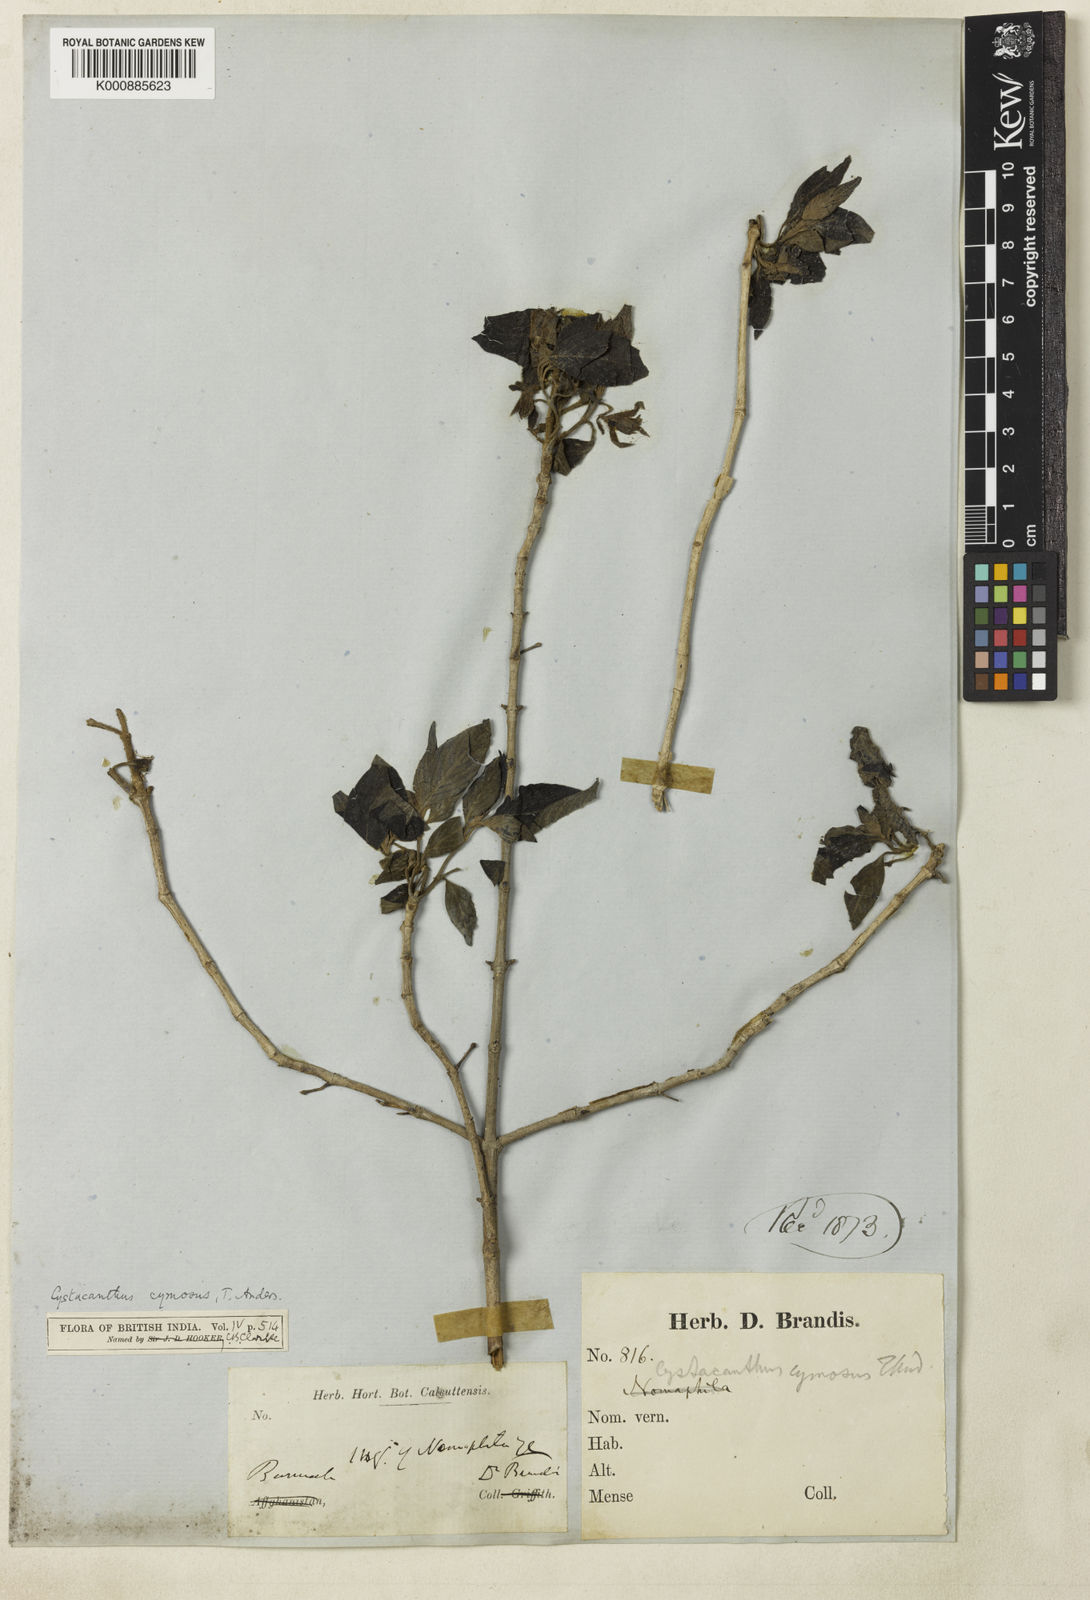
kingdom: Plantae
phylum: Tracheophyta
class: Magnoliopsida
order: Lamiales
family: Acanthaceae
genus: Phlogacanthus
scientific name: Phlogacanthus cymosus
